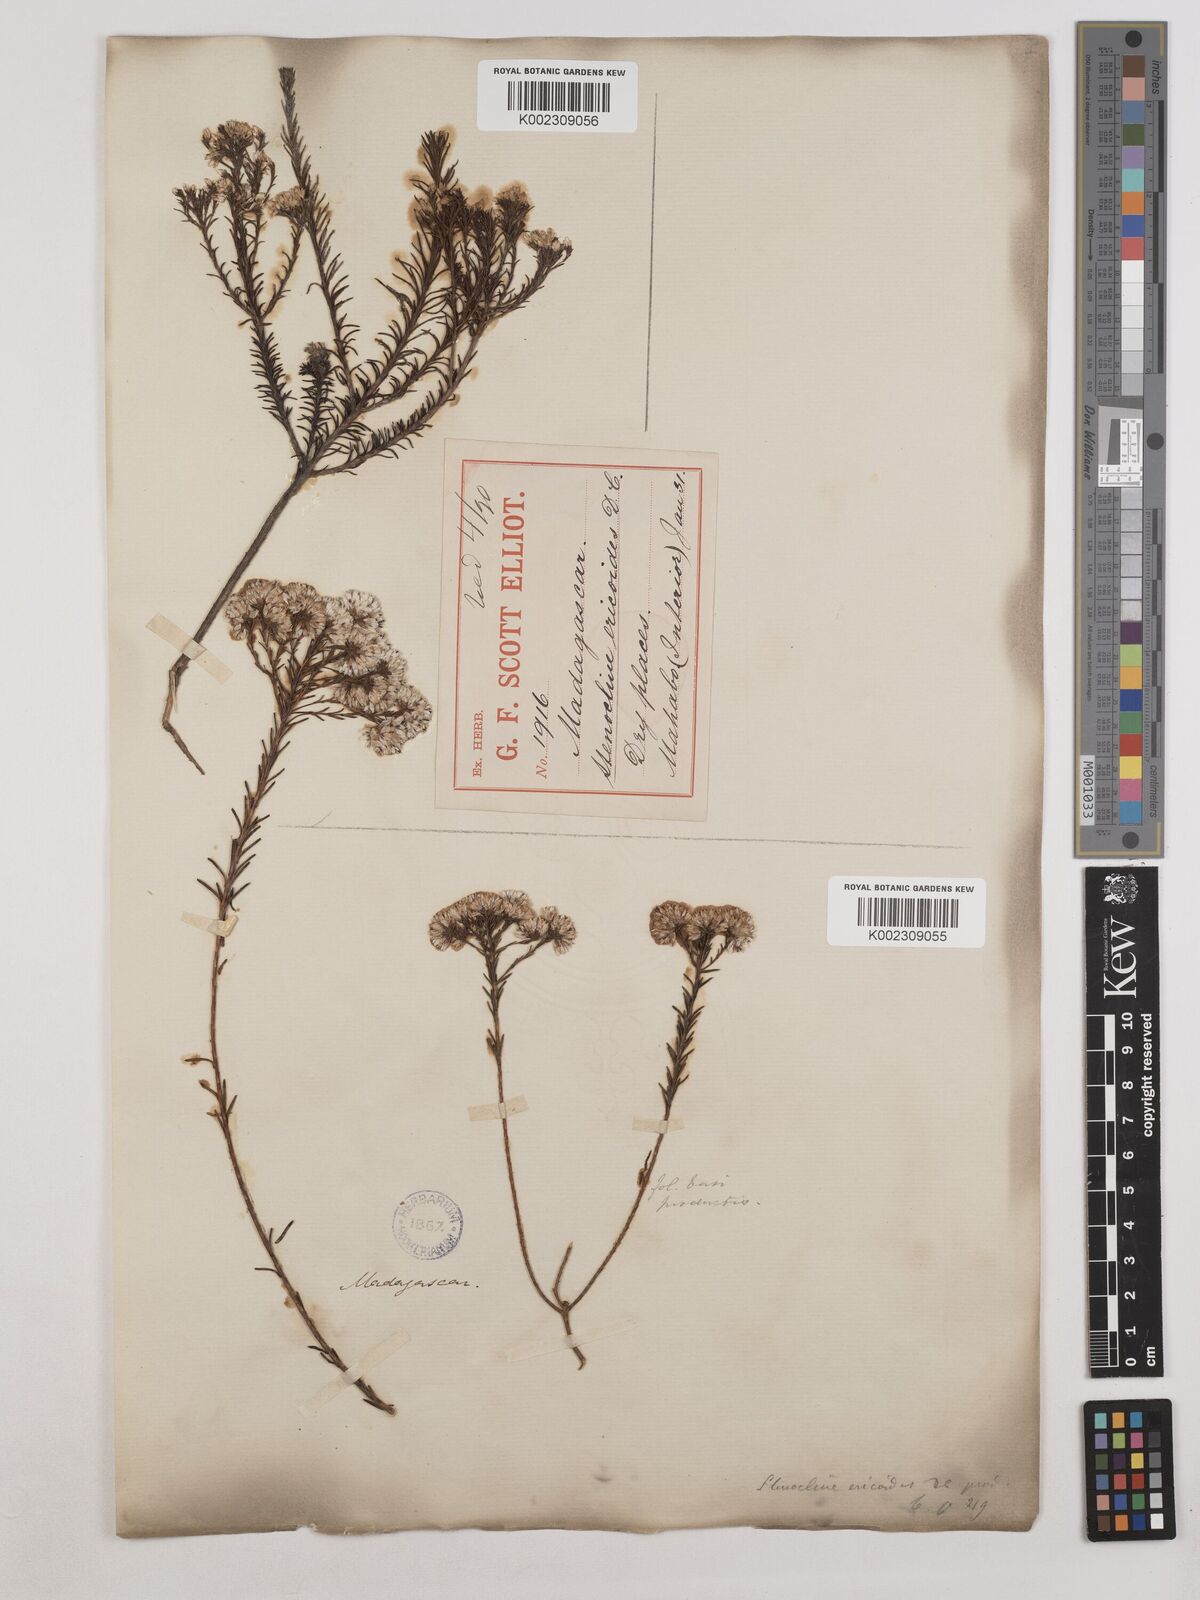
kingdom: Plantae
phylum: Tracheophyta
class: Magnoliopsida
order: Asterales
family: Asteraceae
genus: Stenocline
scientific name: Stenocline ericoides
